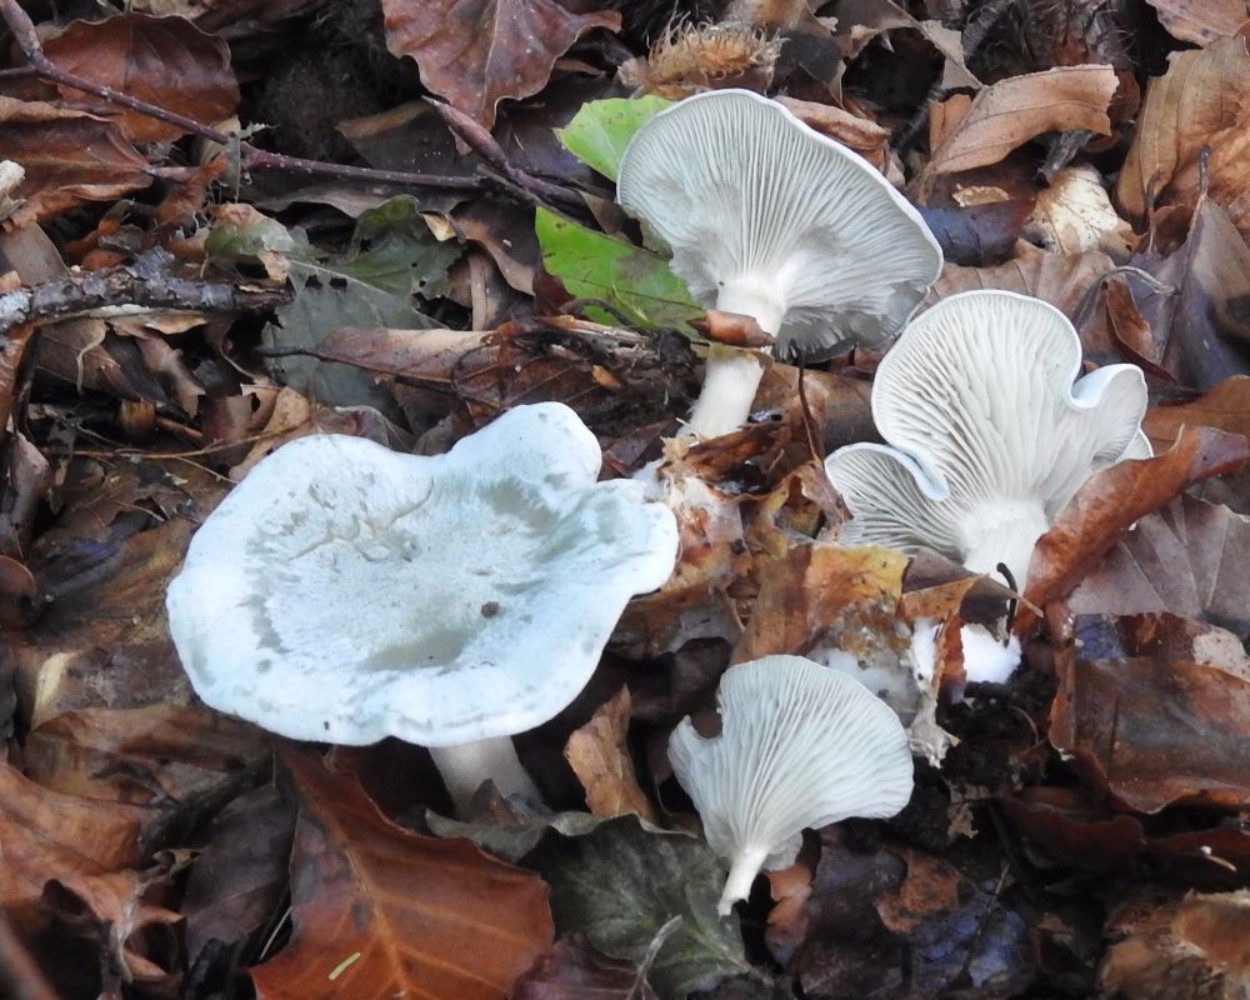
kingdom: Fungi
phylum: Basidiomycota
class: Agaricomycetes
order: Agaricales
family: Tricholomataceae
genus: Clitocybe
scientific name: Clitocybe odora
